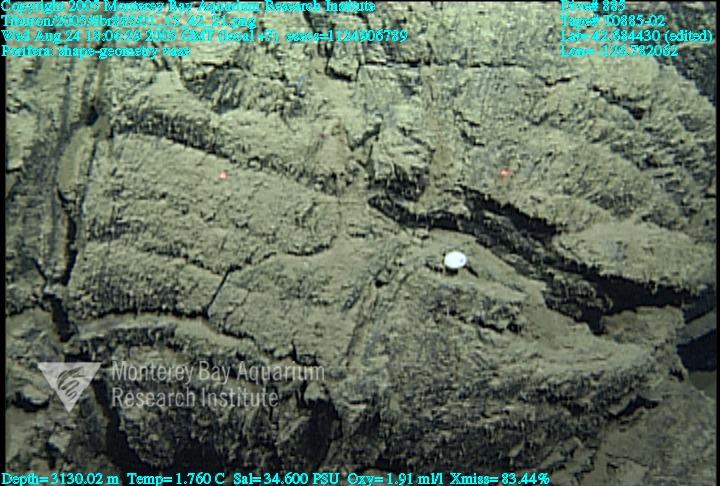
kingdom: Animalia
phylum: Porifera
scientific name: Porifera
